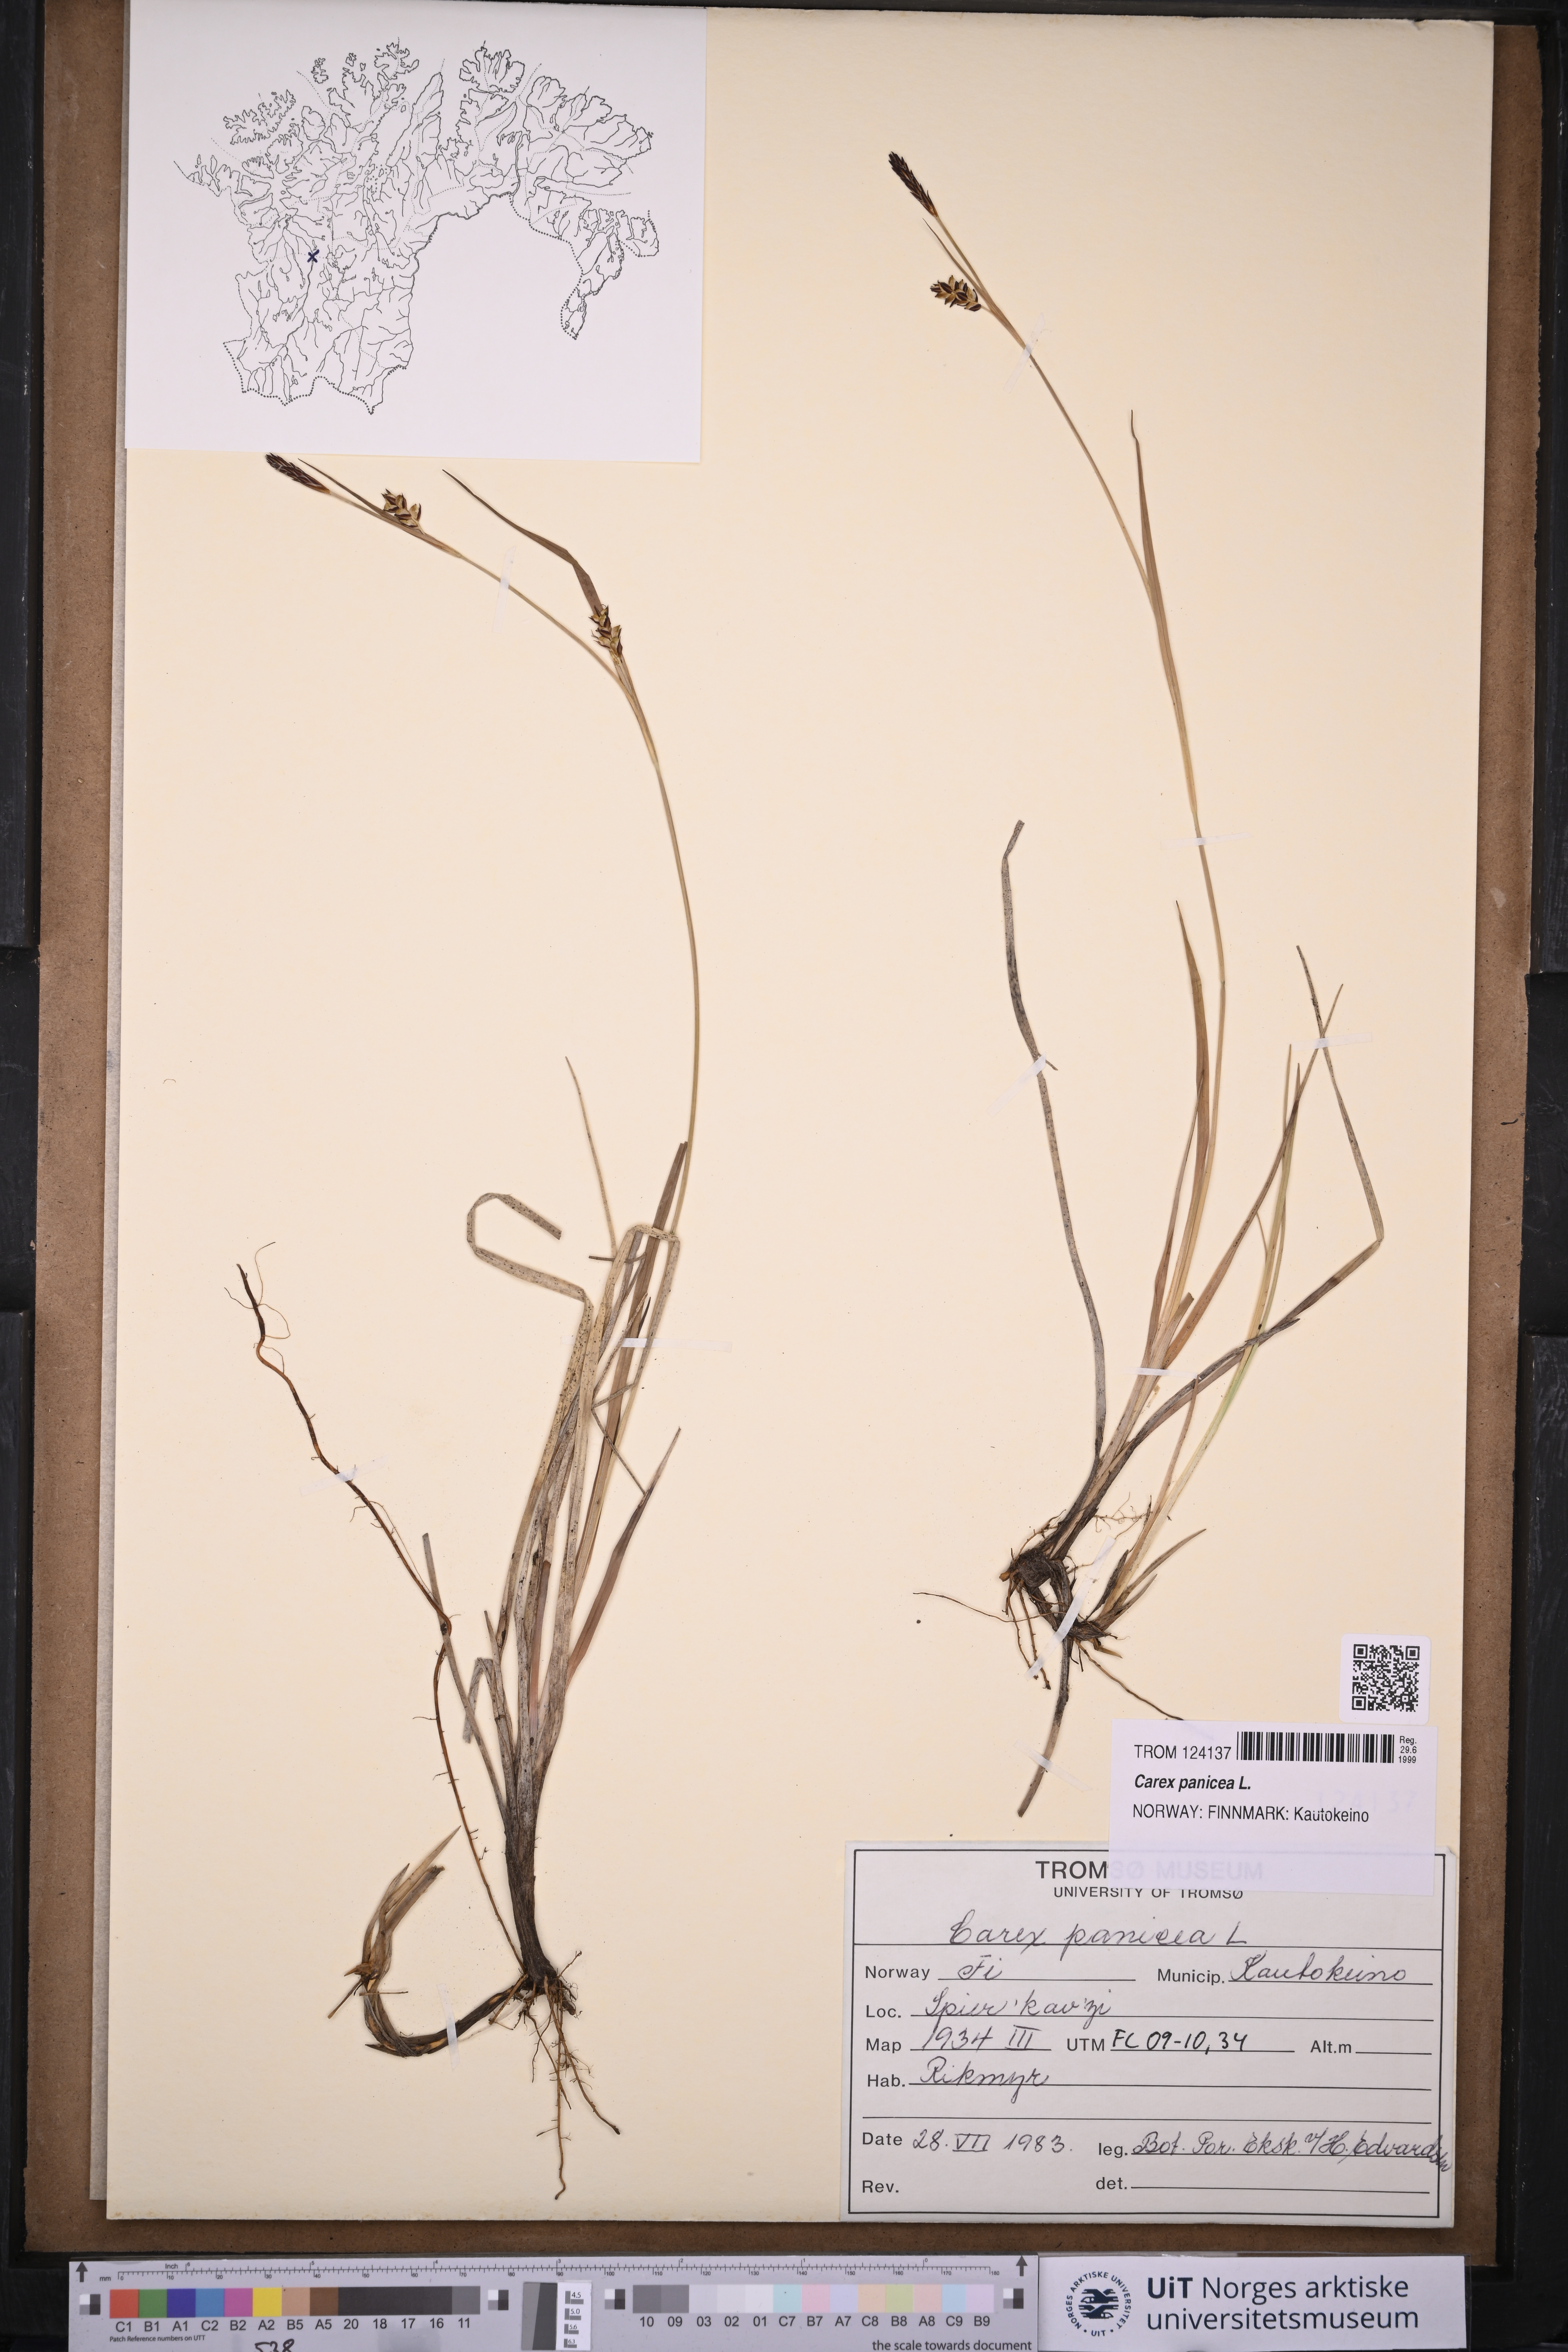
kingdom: Plantae
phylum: Tracheophyta
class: Liliopsida
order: Poales
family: Cyperaceae
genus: Carex
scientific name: Carex panicea
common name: Carnation sedge
